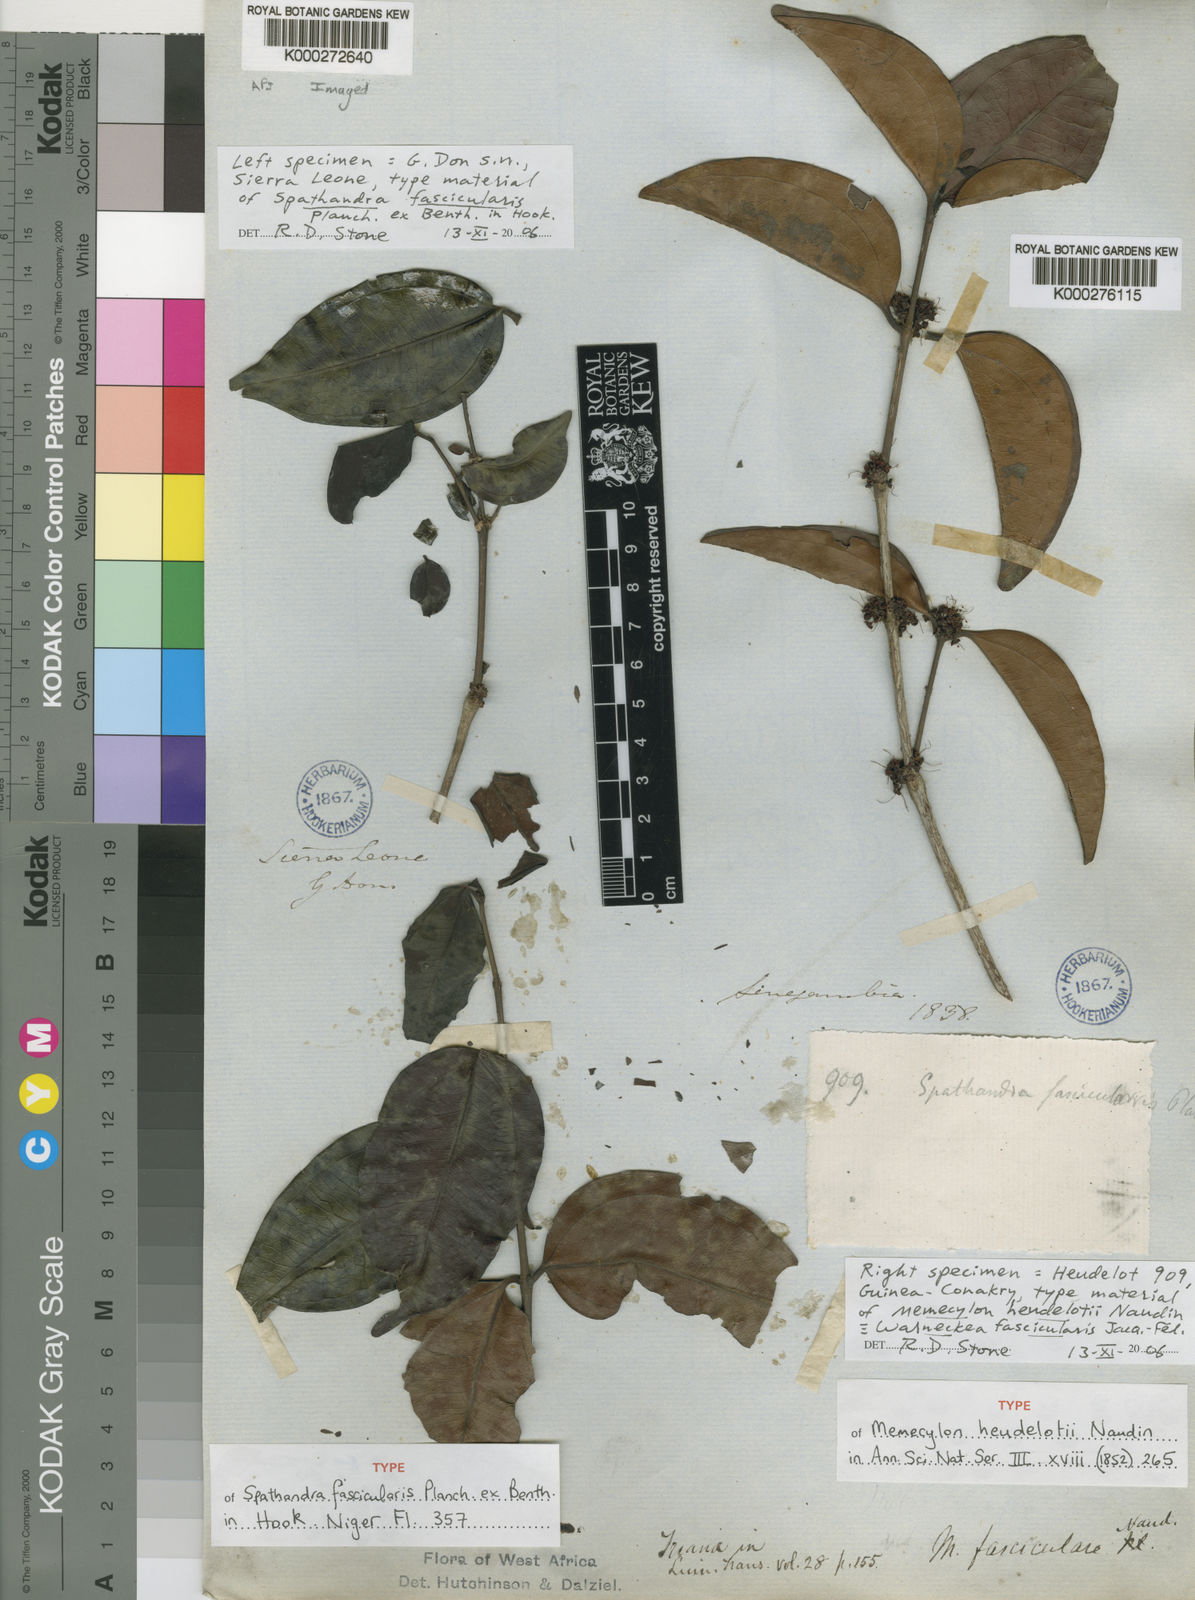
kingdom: Plantae
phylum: Tracheophyta
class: Magnoliopsida
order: Myrtales
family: Melastomataceae
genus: Warneckea
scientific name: Warneckea
